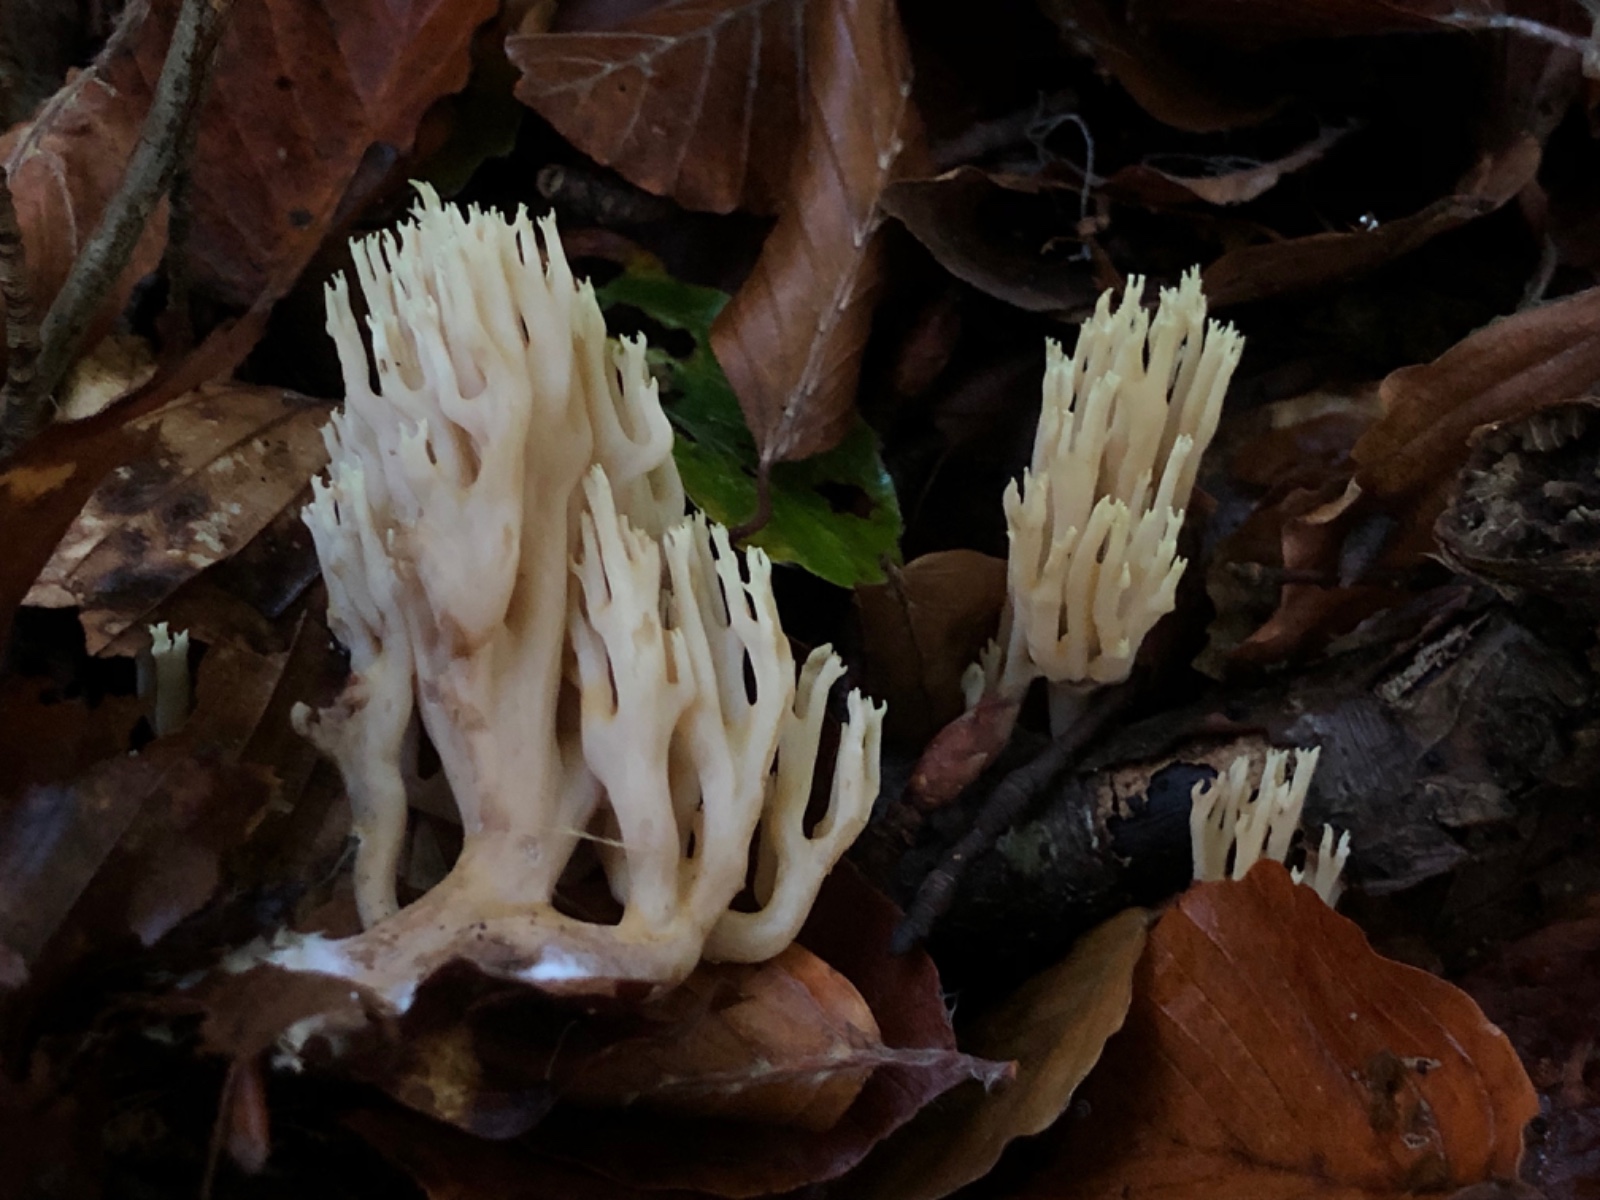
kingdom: Fungi
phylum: Basidiomycota
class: Agaricomycetes
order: Gomphales
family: Gomphaceae
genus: Ramaria
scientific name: Ramaria stricta
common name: rank koralsvamp
